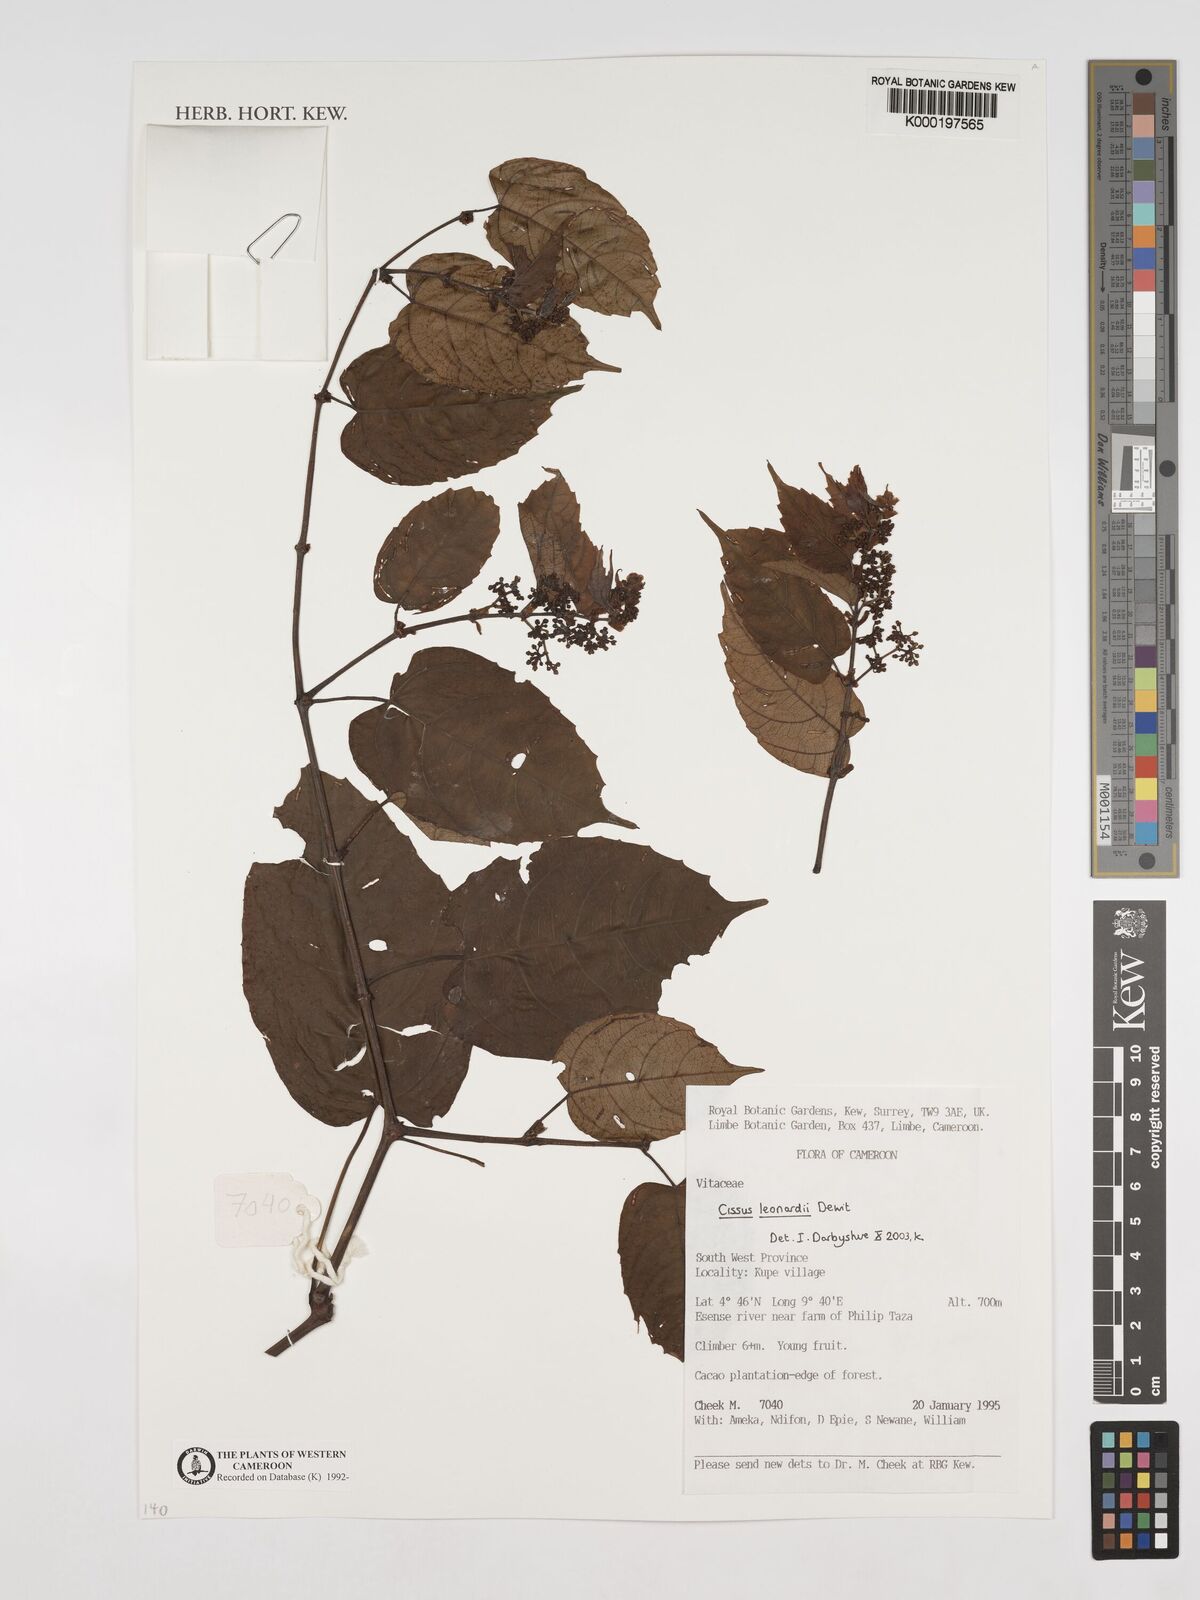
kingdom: Plantae
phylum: Tracheophyta
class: Magnoliopsida
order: Vitales
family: Vitaceae
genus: Cissus
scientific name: Cissus leonardii
